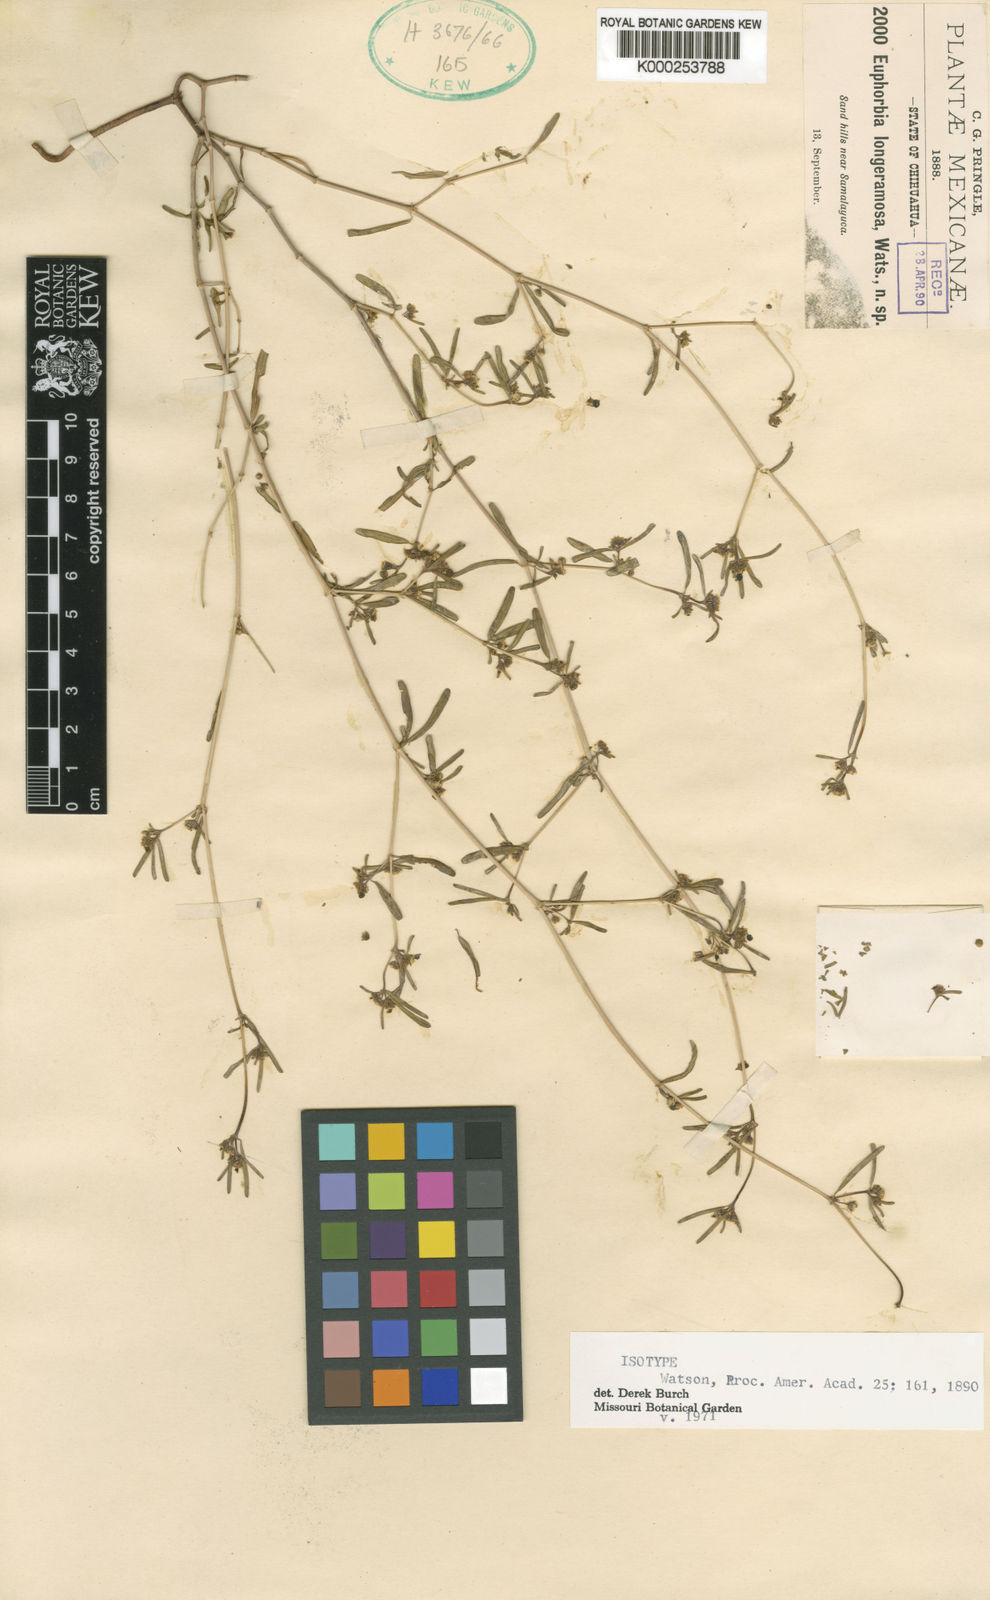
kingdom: Plantae
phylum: Tracheophyta
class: Magnoliopsida
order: Malpighiales
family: Euphorbiaceae
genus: Euphorbia
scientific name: Euphorbia
